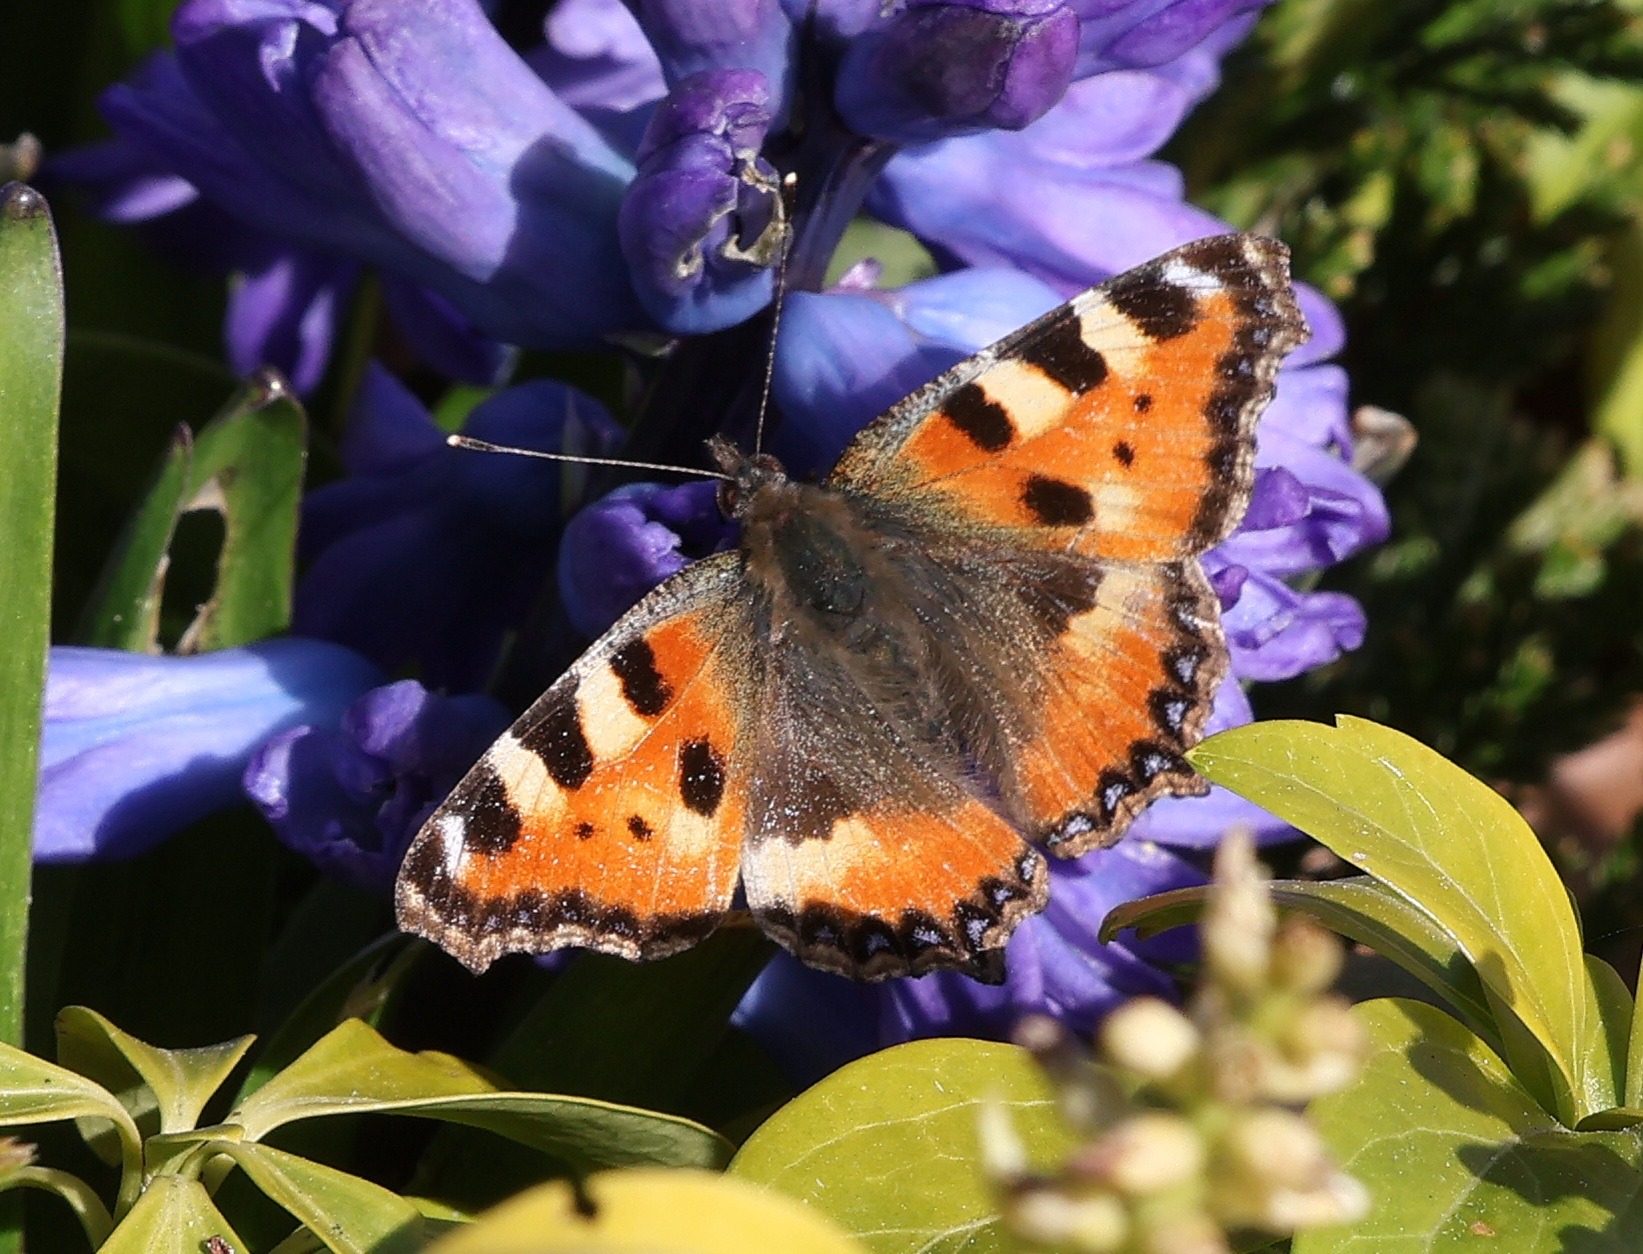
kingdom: Animalia
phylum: Arthropoda
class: Insecta
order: Lepidoptera
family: Nymphalidae
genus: Aglais
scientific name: Aglais urticae
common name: Nældens takvinge
